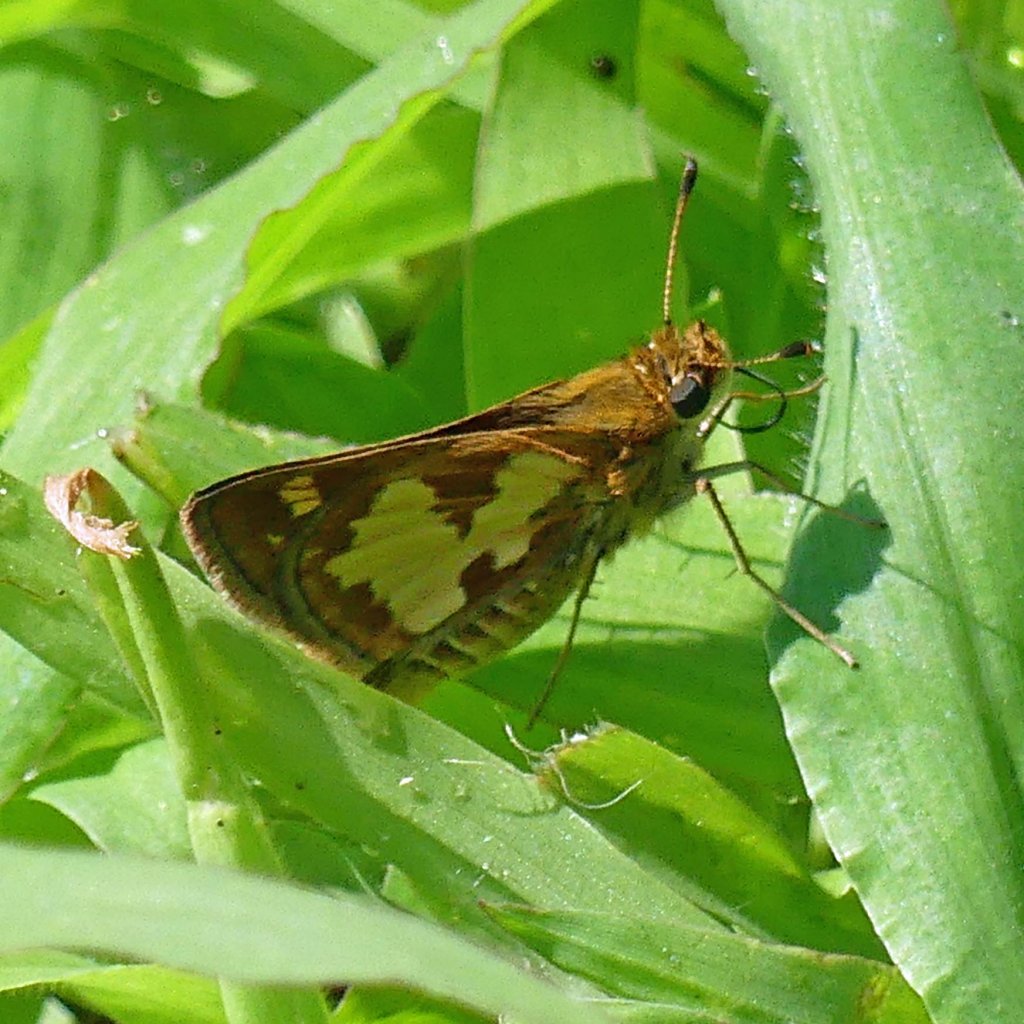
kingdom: Animalia
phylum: Arthropoda
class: Insecta
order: Lepidoptera
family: Hesperiidae
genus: Polites
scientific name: Polites coras
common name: Peck's Skipper
